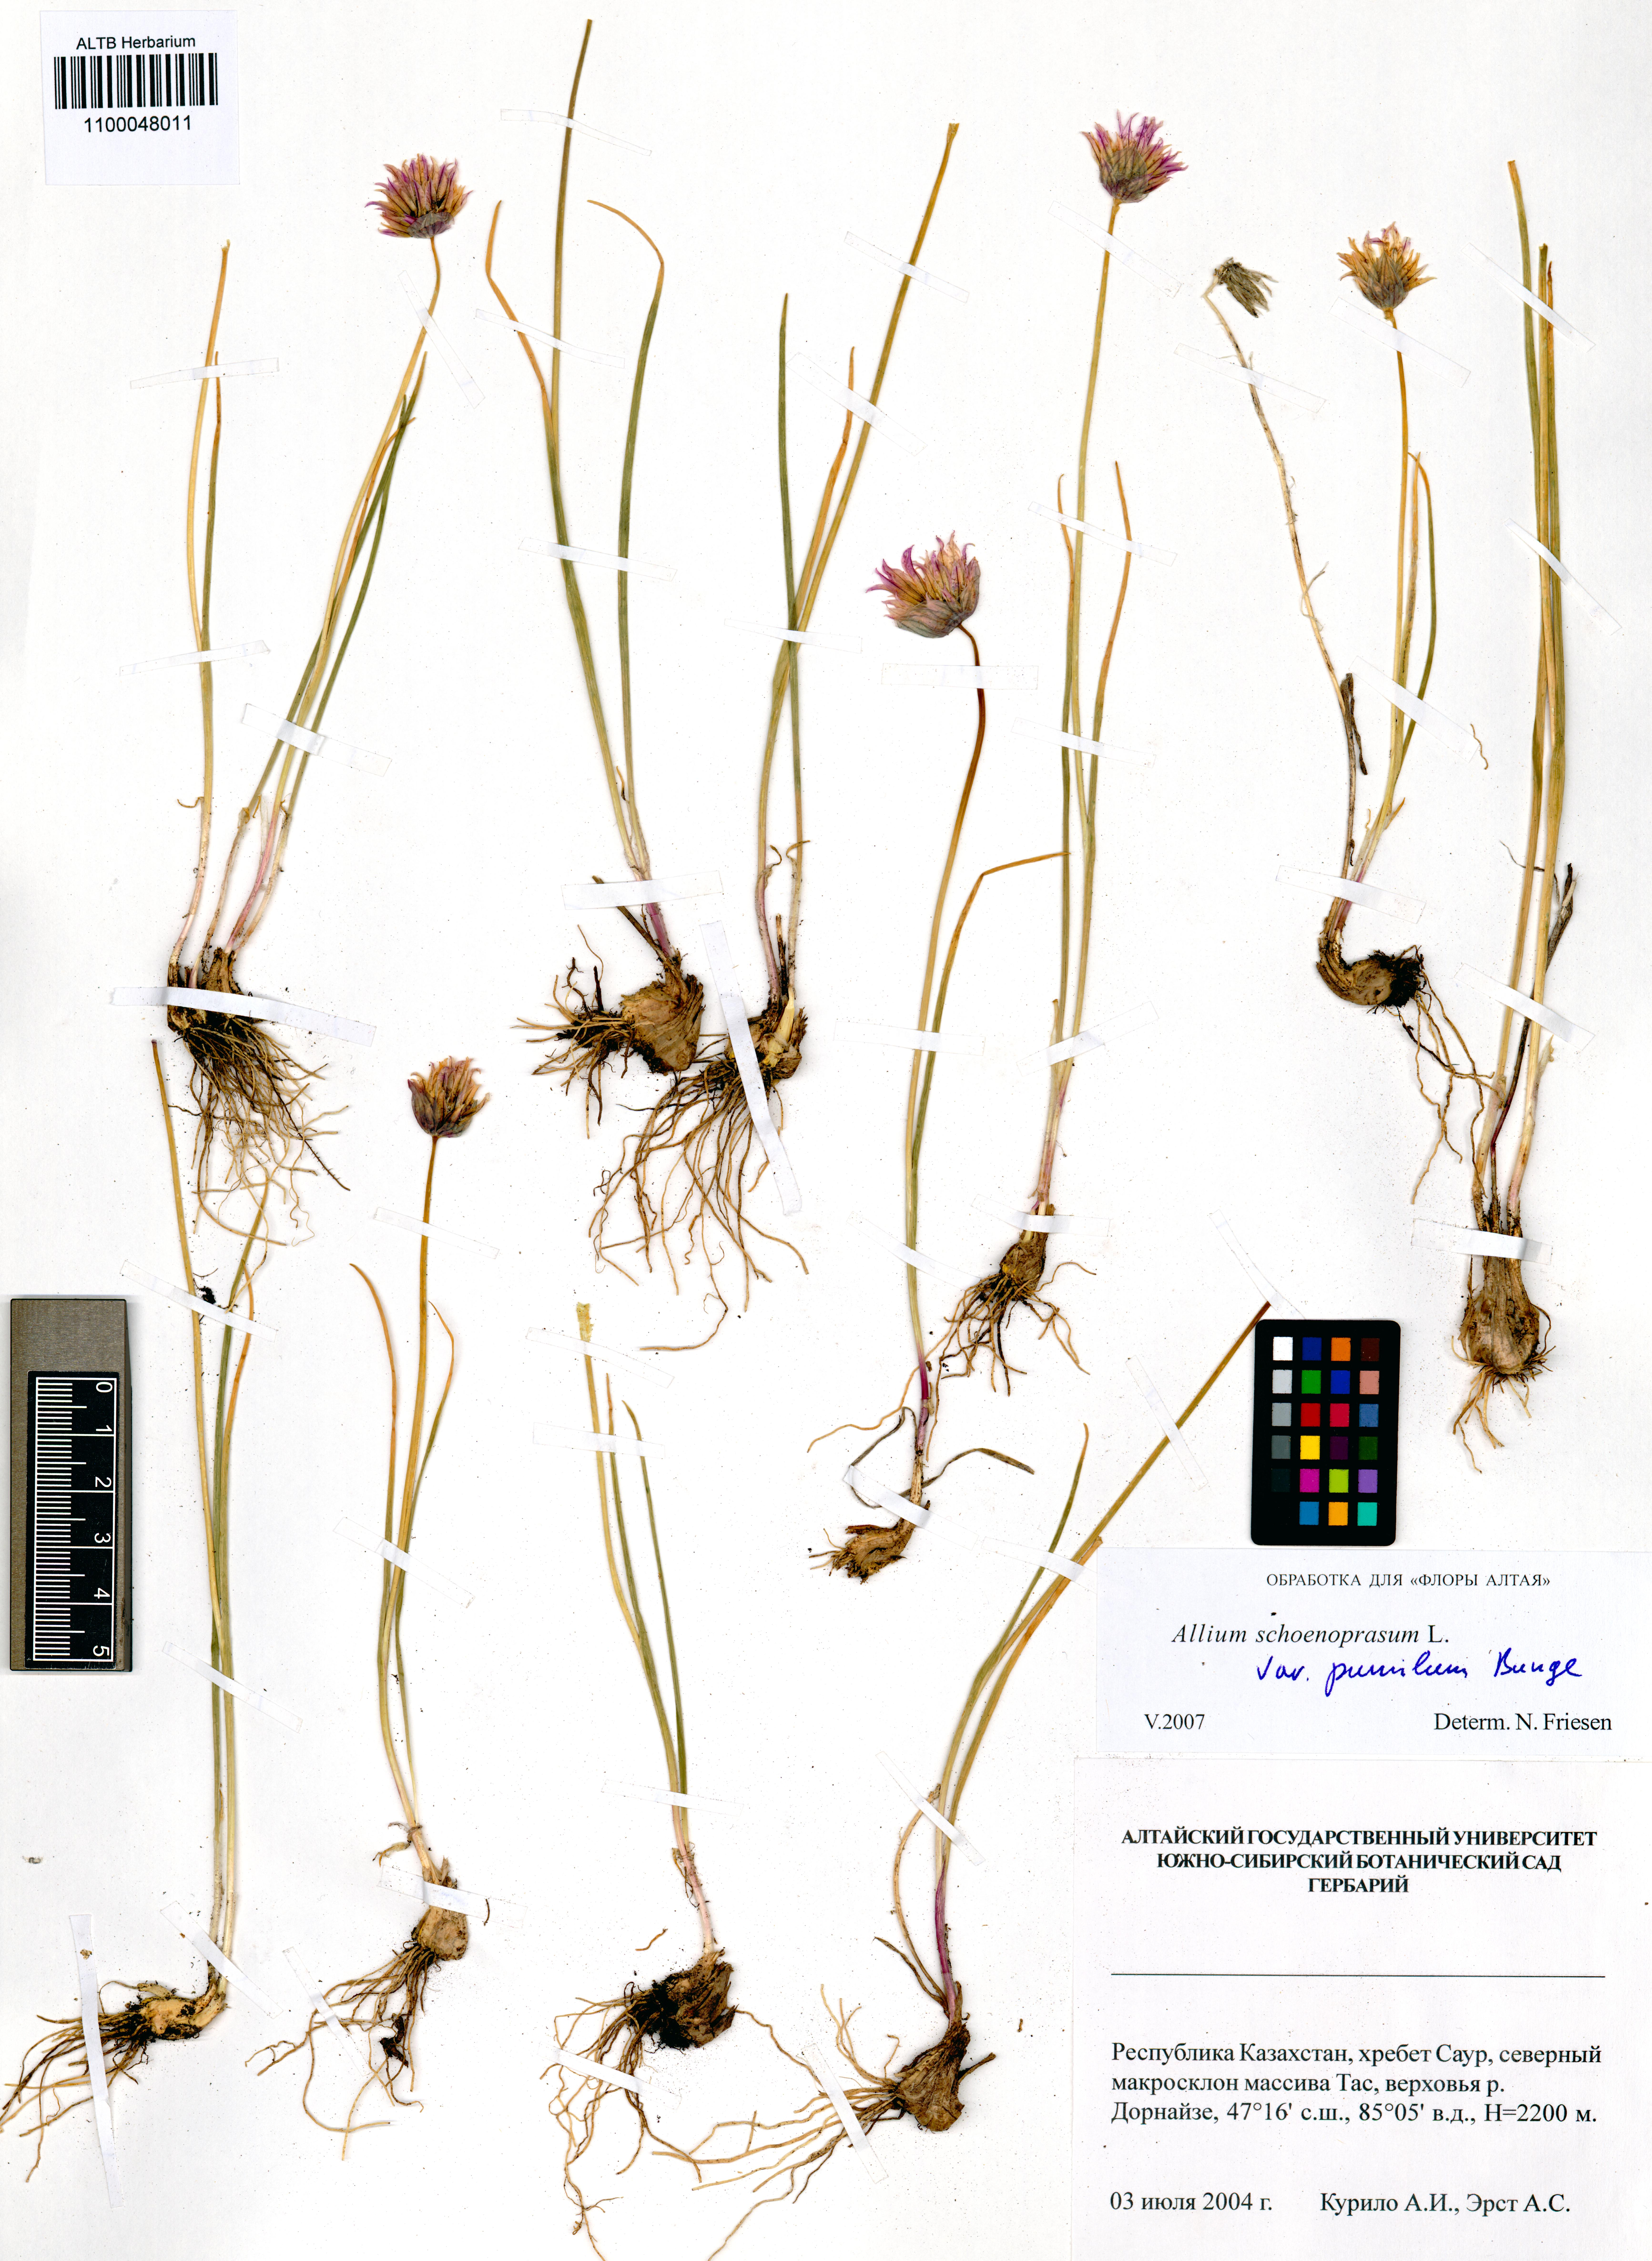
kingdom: Plantae
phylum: Tracheophyta
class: Liliopsida
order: Asparagales
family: Amaryllidaceae
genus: Allium
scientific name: Allium schoenoprasum
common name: Chives
